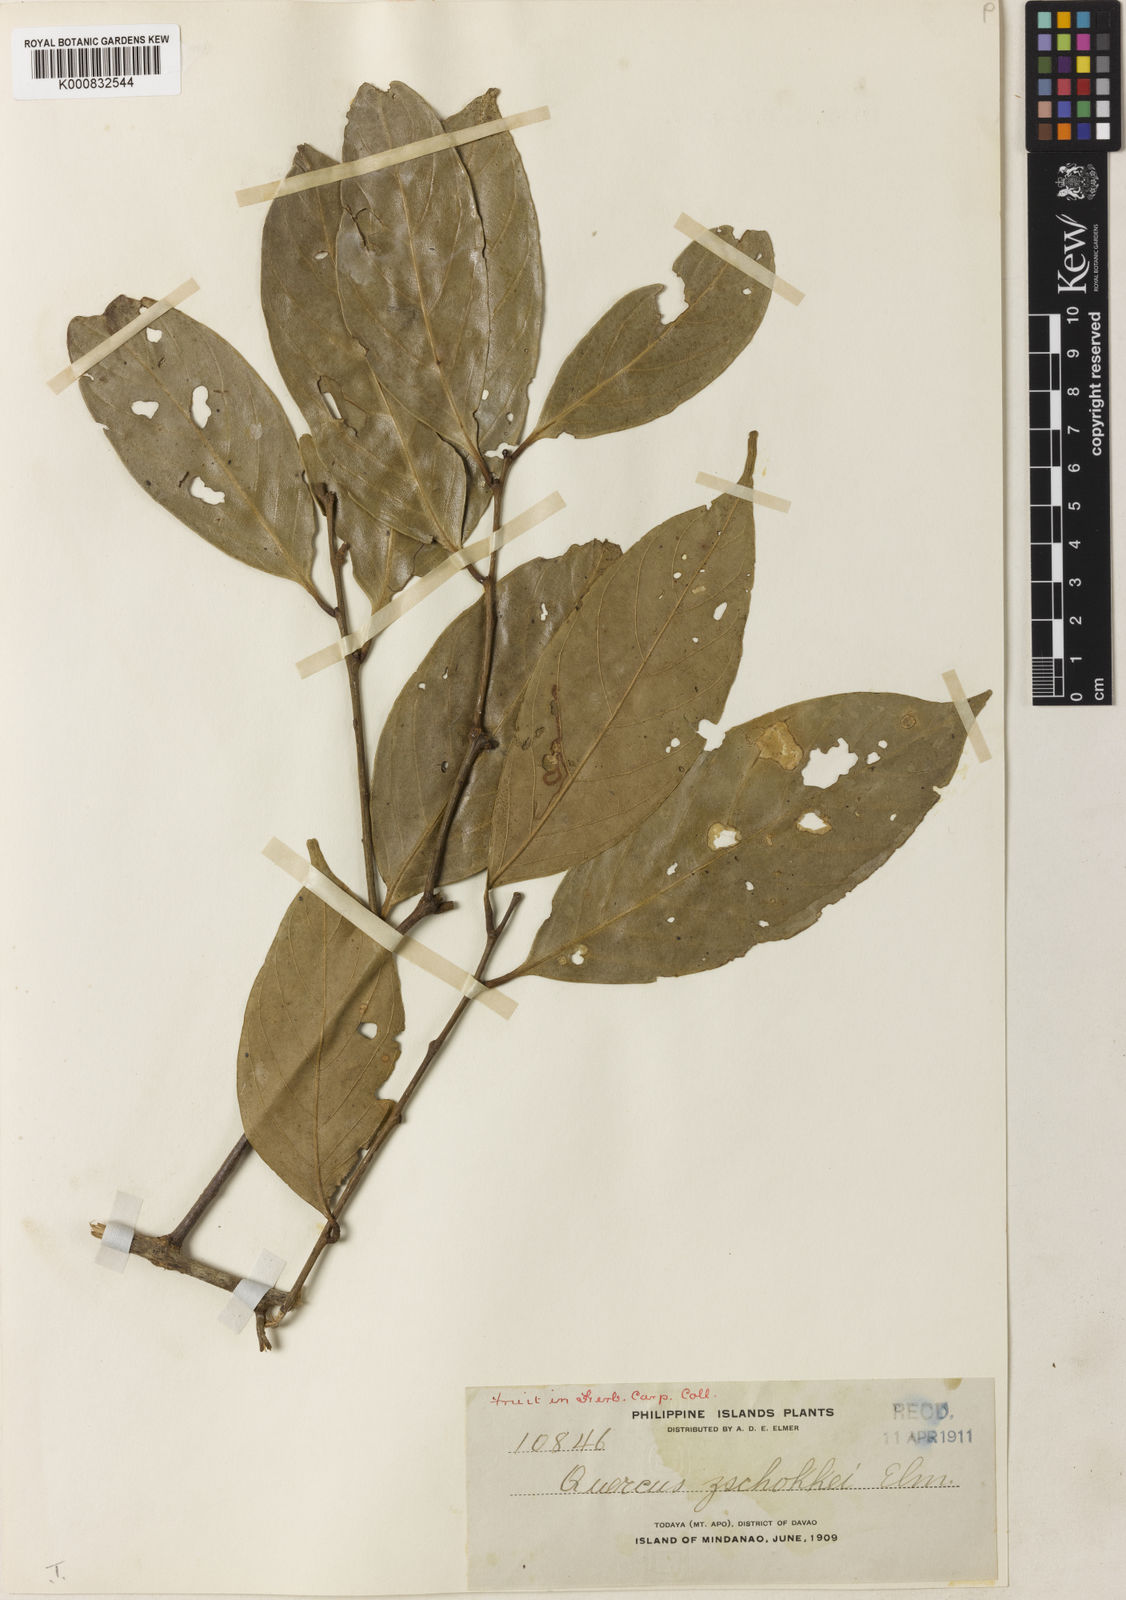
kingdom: Plantae
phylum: Tracheophyta
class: Magnoliopsida
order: Fagales
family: Fagaceae
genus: Lithocarpus
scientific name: Lithocarpus glutinosus
